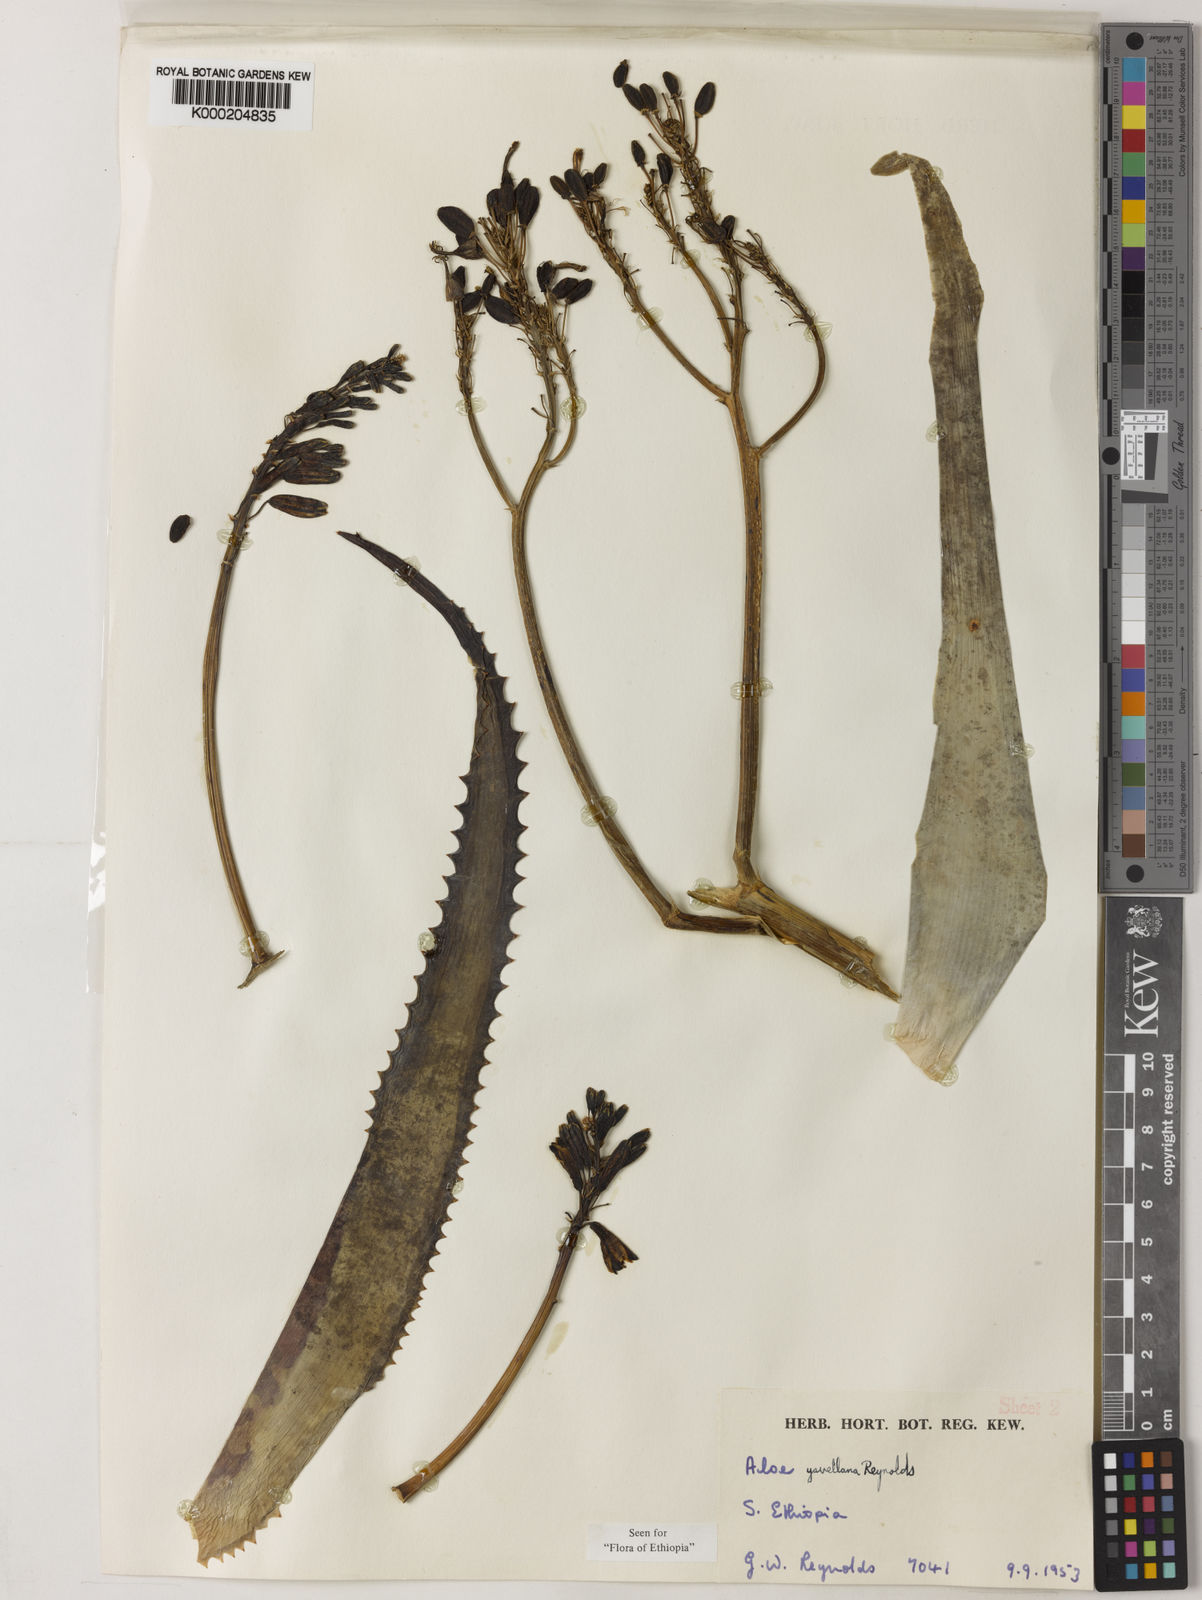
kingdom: Plantae
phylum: Tracheophyta
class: Liliopsida
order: Asparagales
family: Asphodelaceae
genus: Aloe
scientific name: Aloe yavellana
